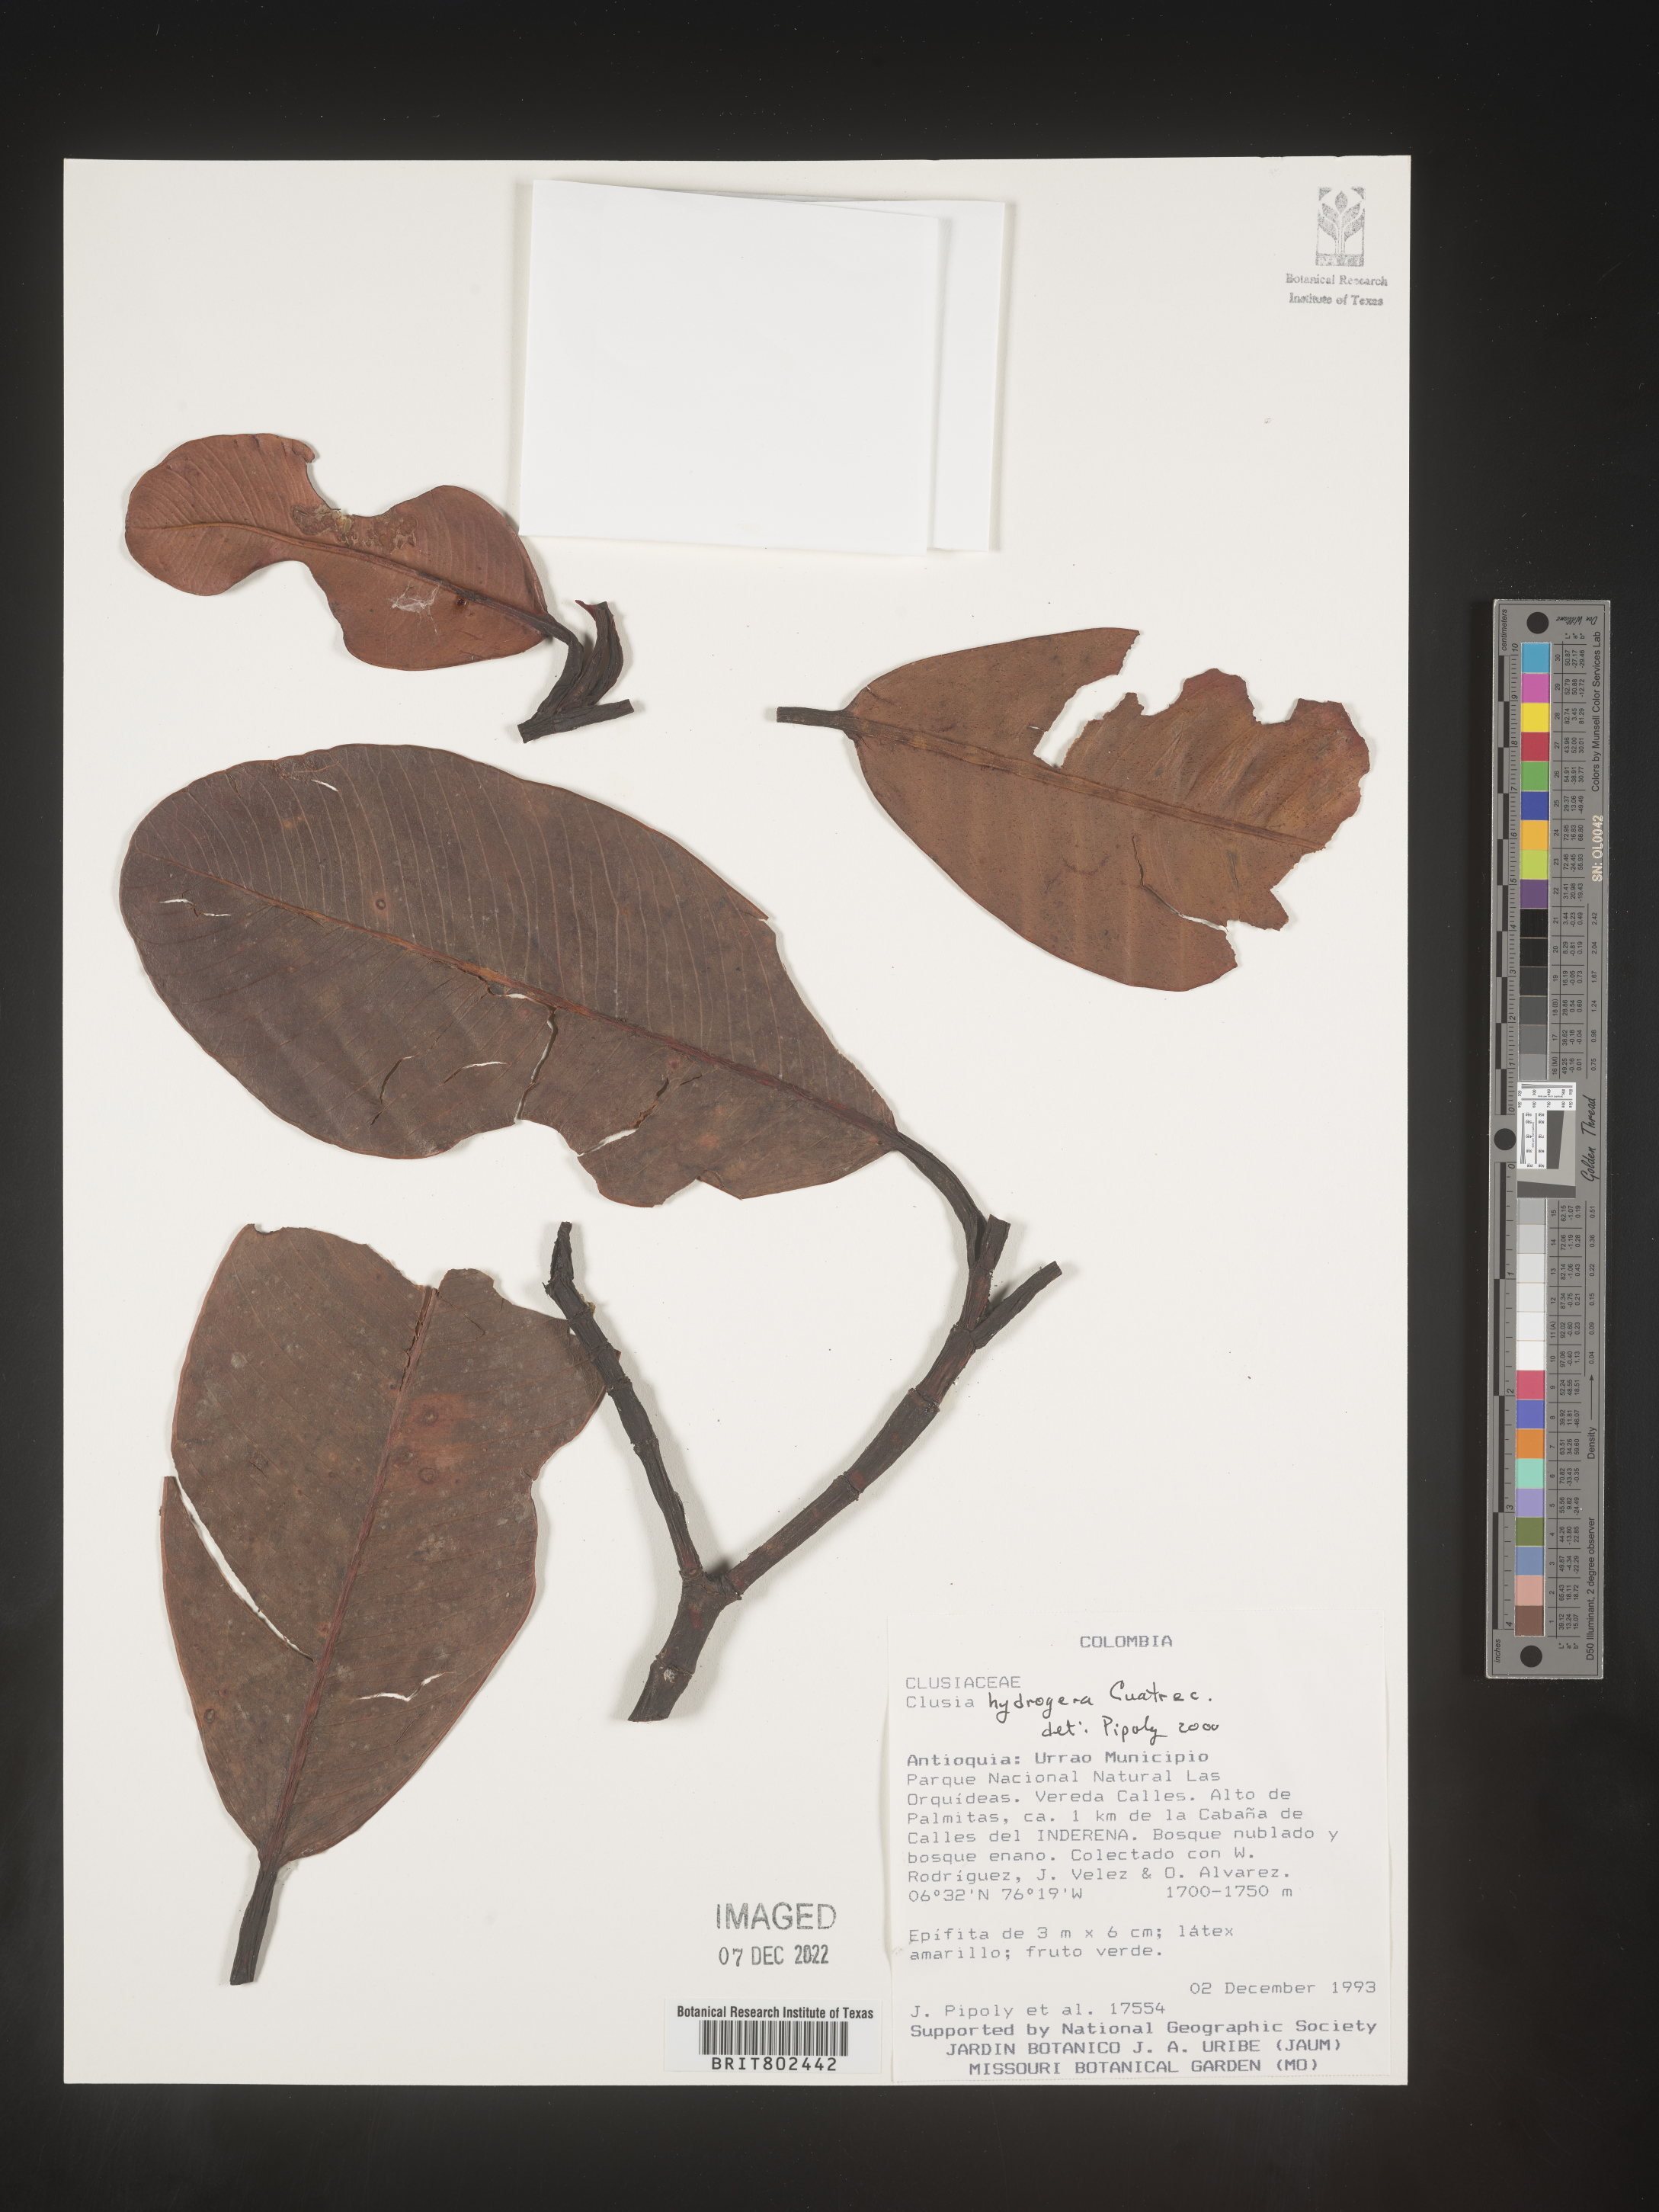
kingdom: Plantae
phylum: Tracheophyta
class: Magnoliopsida
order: Malpighiales
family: Clusiaceae
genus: Clusia
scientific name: Clusia hydrogera
